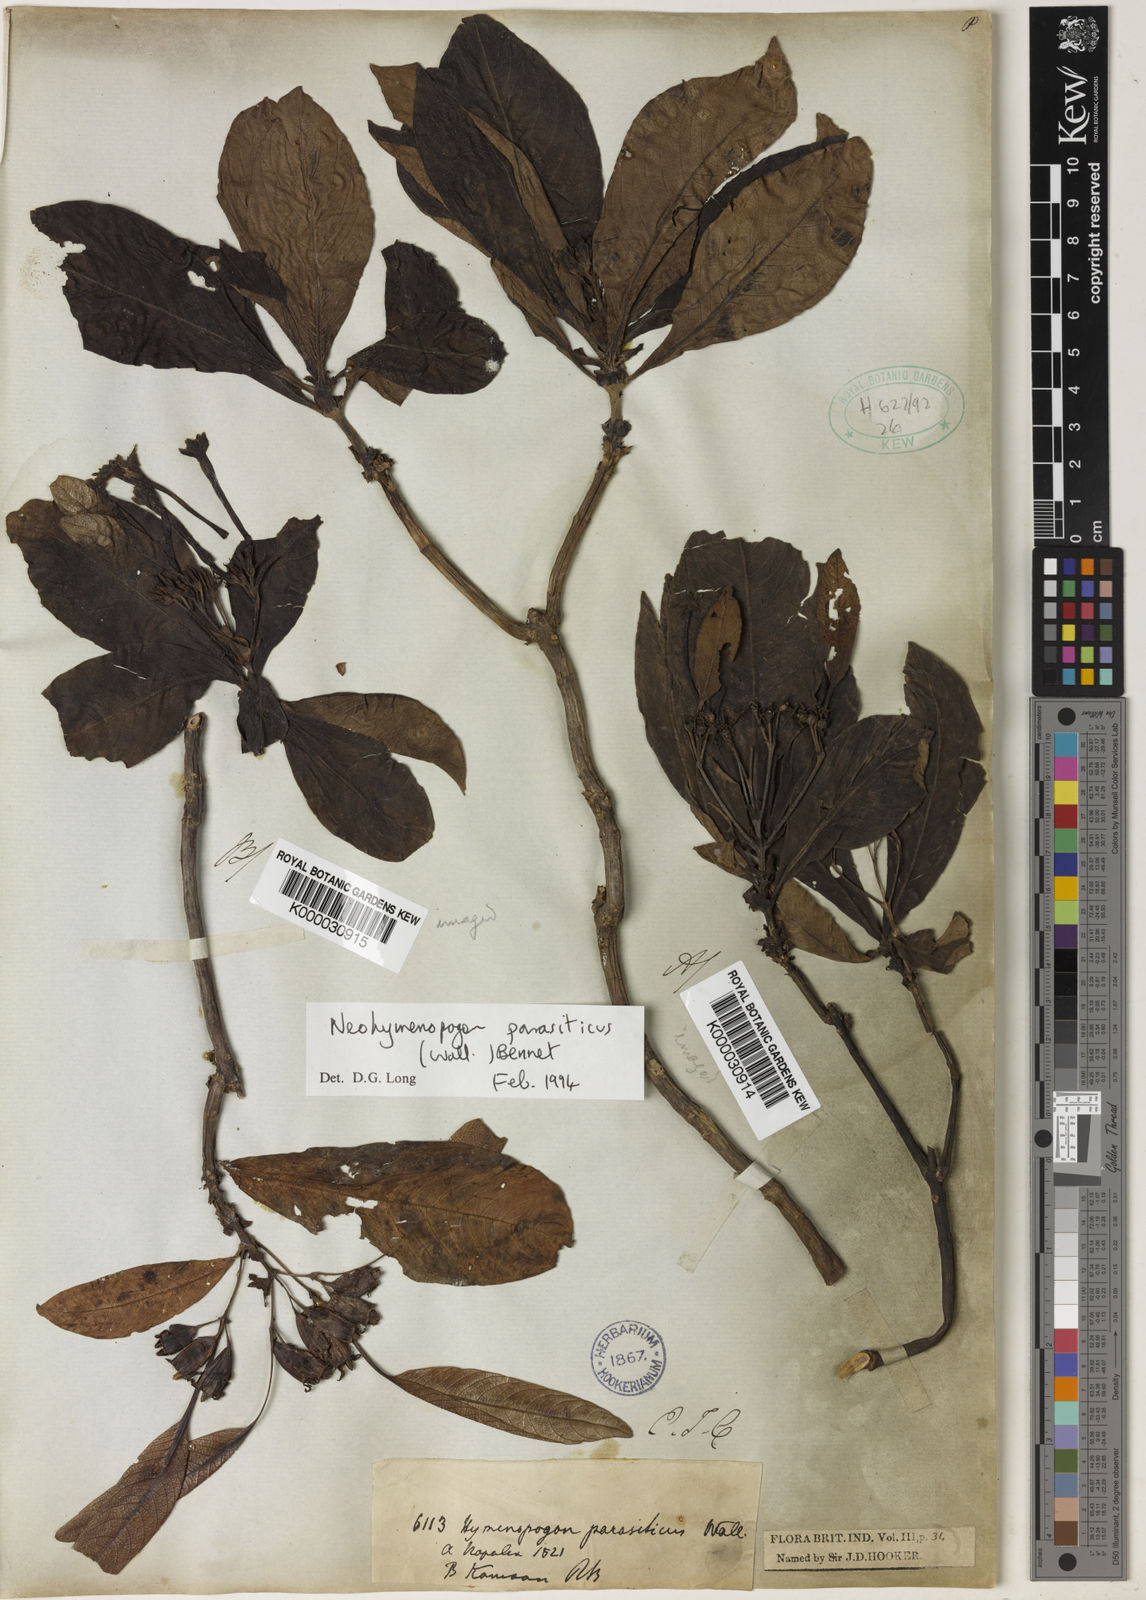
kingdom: Plantae
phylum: Tracheophyta
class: Magnoliopsida
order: Gentianales
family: Rubiaceae
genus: Neohymenopogon
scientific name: Neohymenopogon parasiticus
